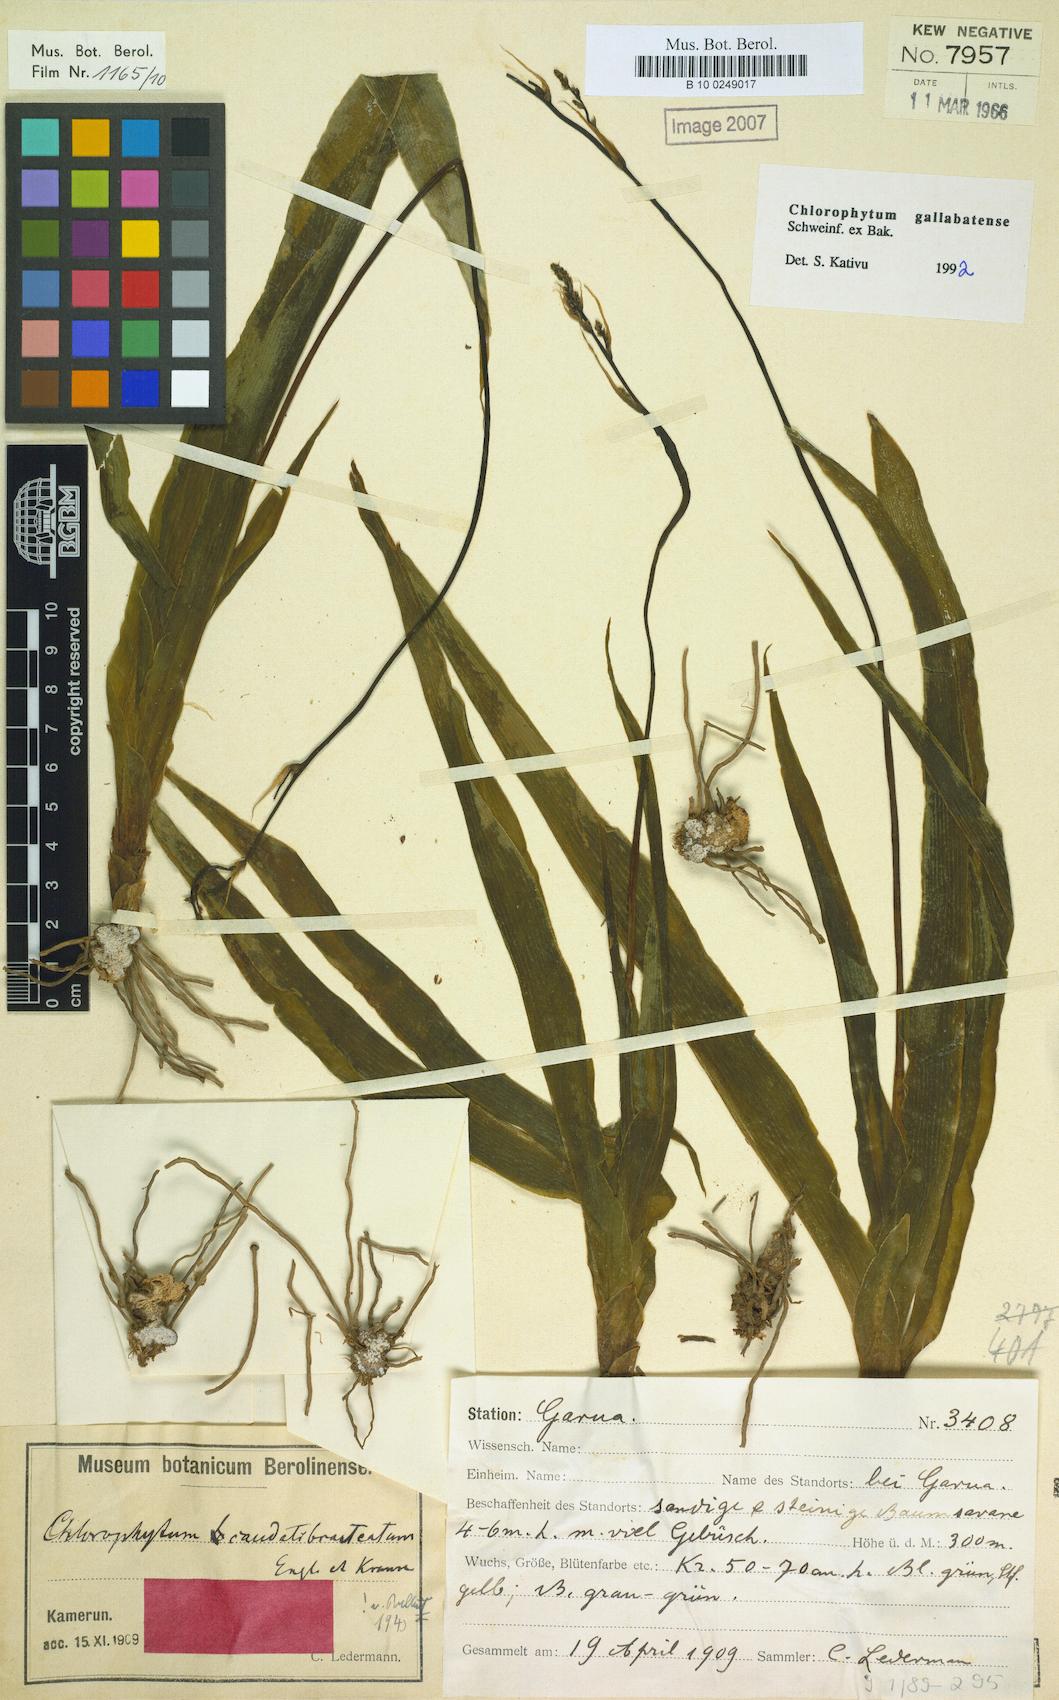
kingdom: Plantae
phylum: Tracheophyta
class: Liliopsida
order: Asparagales
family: Asparagaceae
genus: Chlorophytum
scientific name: Chlorophytum gallabatense
